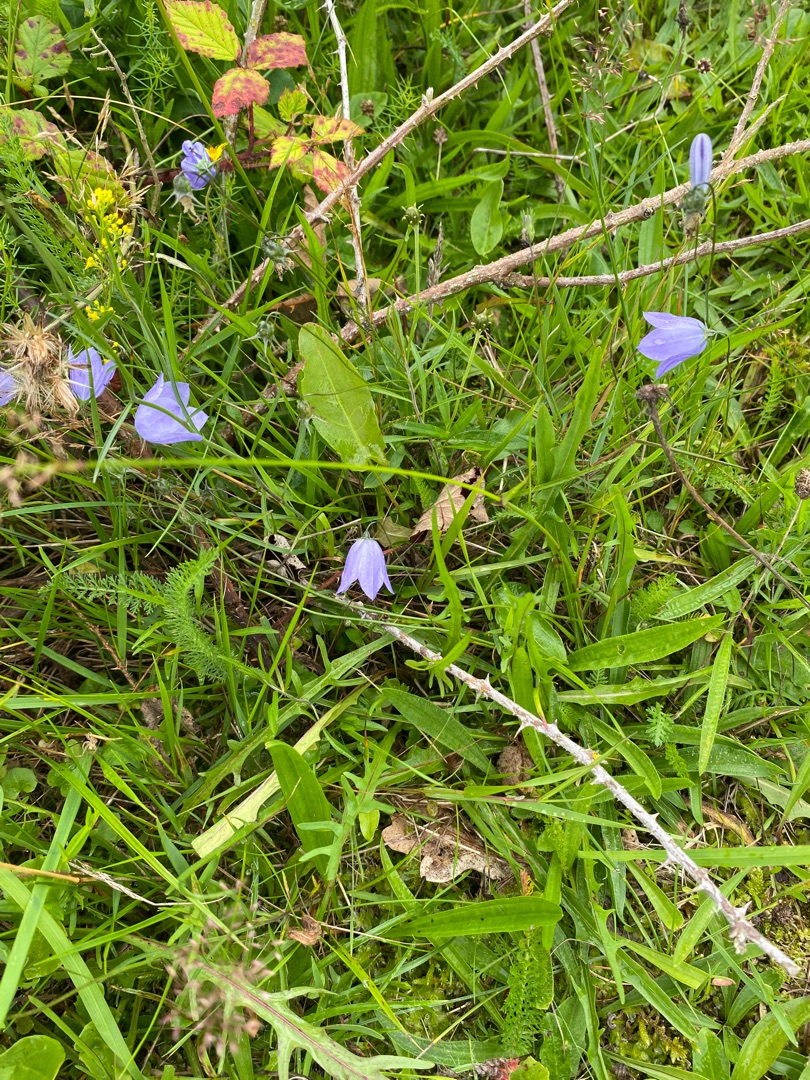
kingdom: Plantae
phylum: Tracheophyta
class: Magnoliopsida
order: Asterales
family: Campanulaceae
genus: Campanula
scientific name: Campanula rotundifolia
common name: Liden klokke
